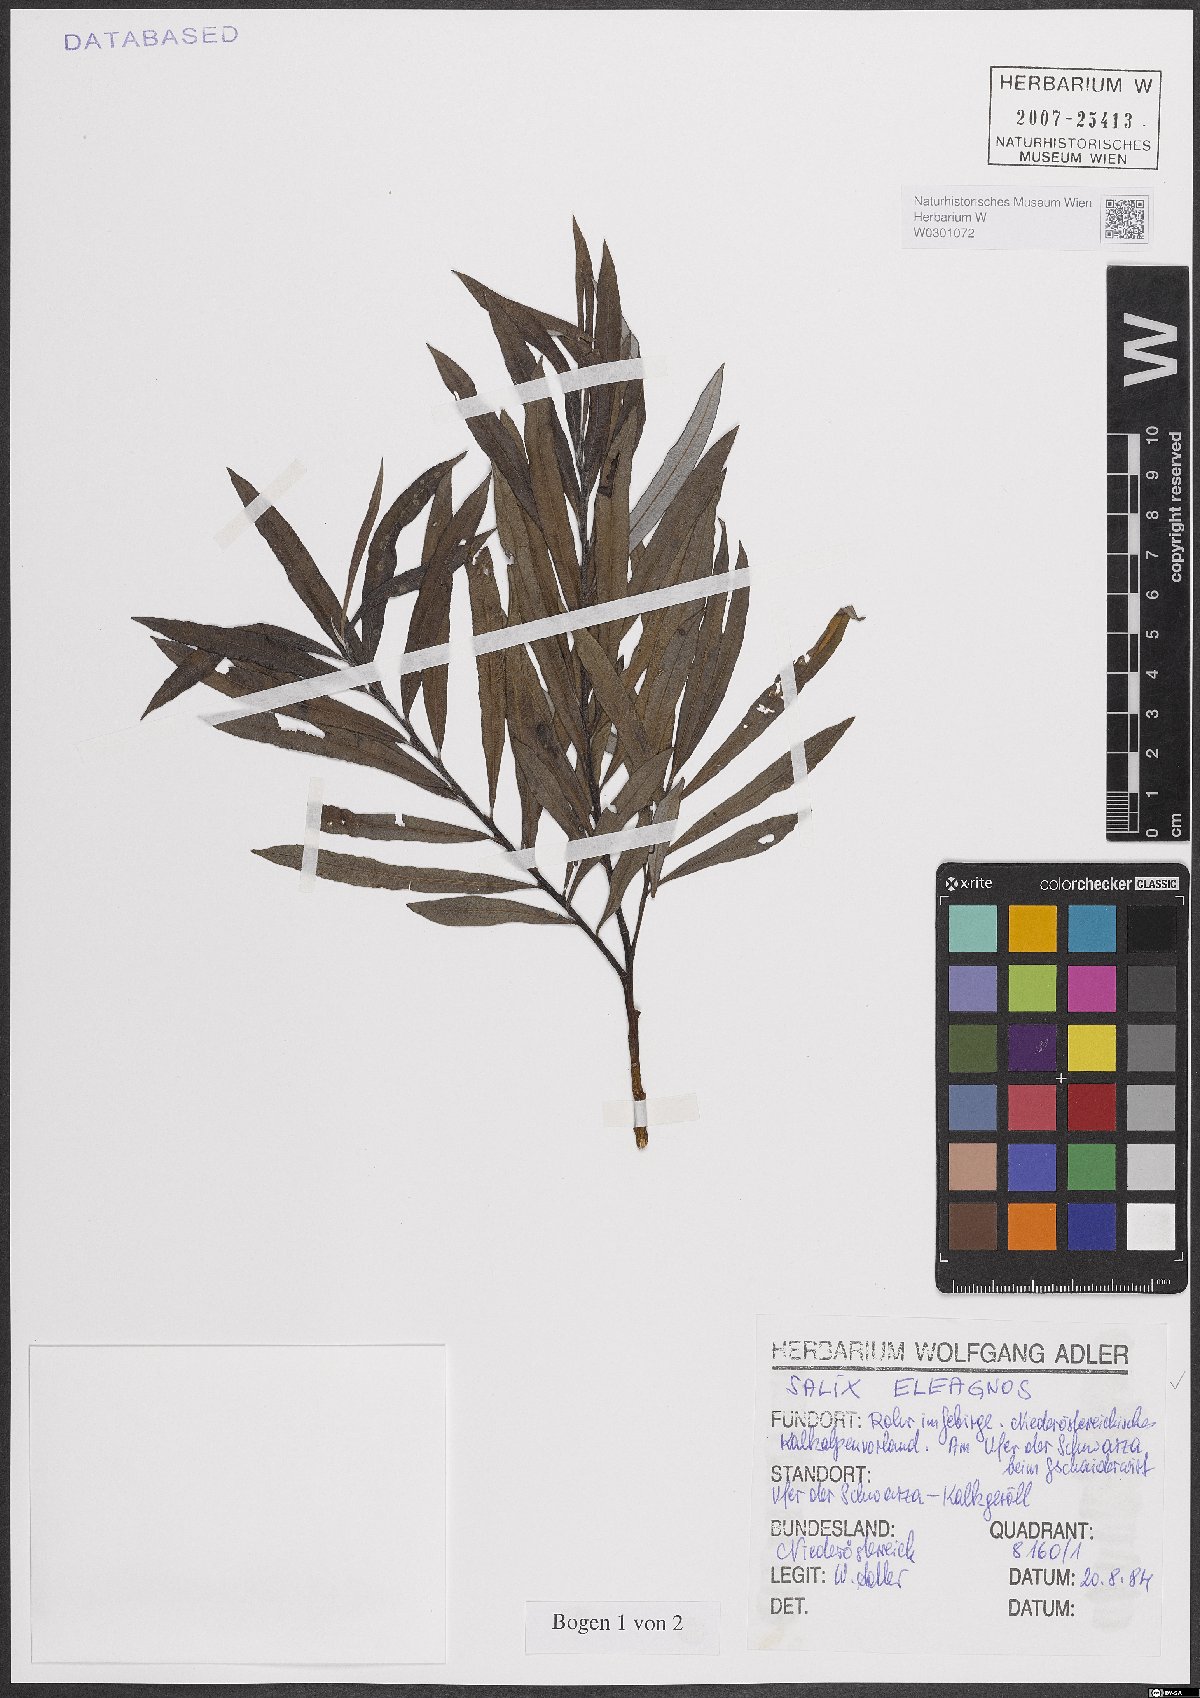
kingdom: Plantae
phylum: Tracheophyta
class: Magnoliopsida
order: Malpighiales
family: Salicaceae
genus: Salix
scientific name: Salix eleagnos
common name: Elaeagnus willow
